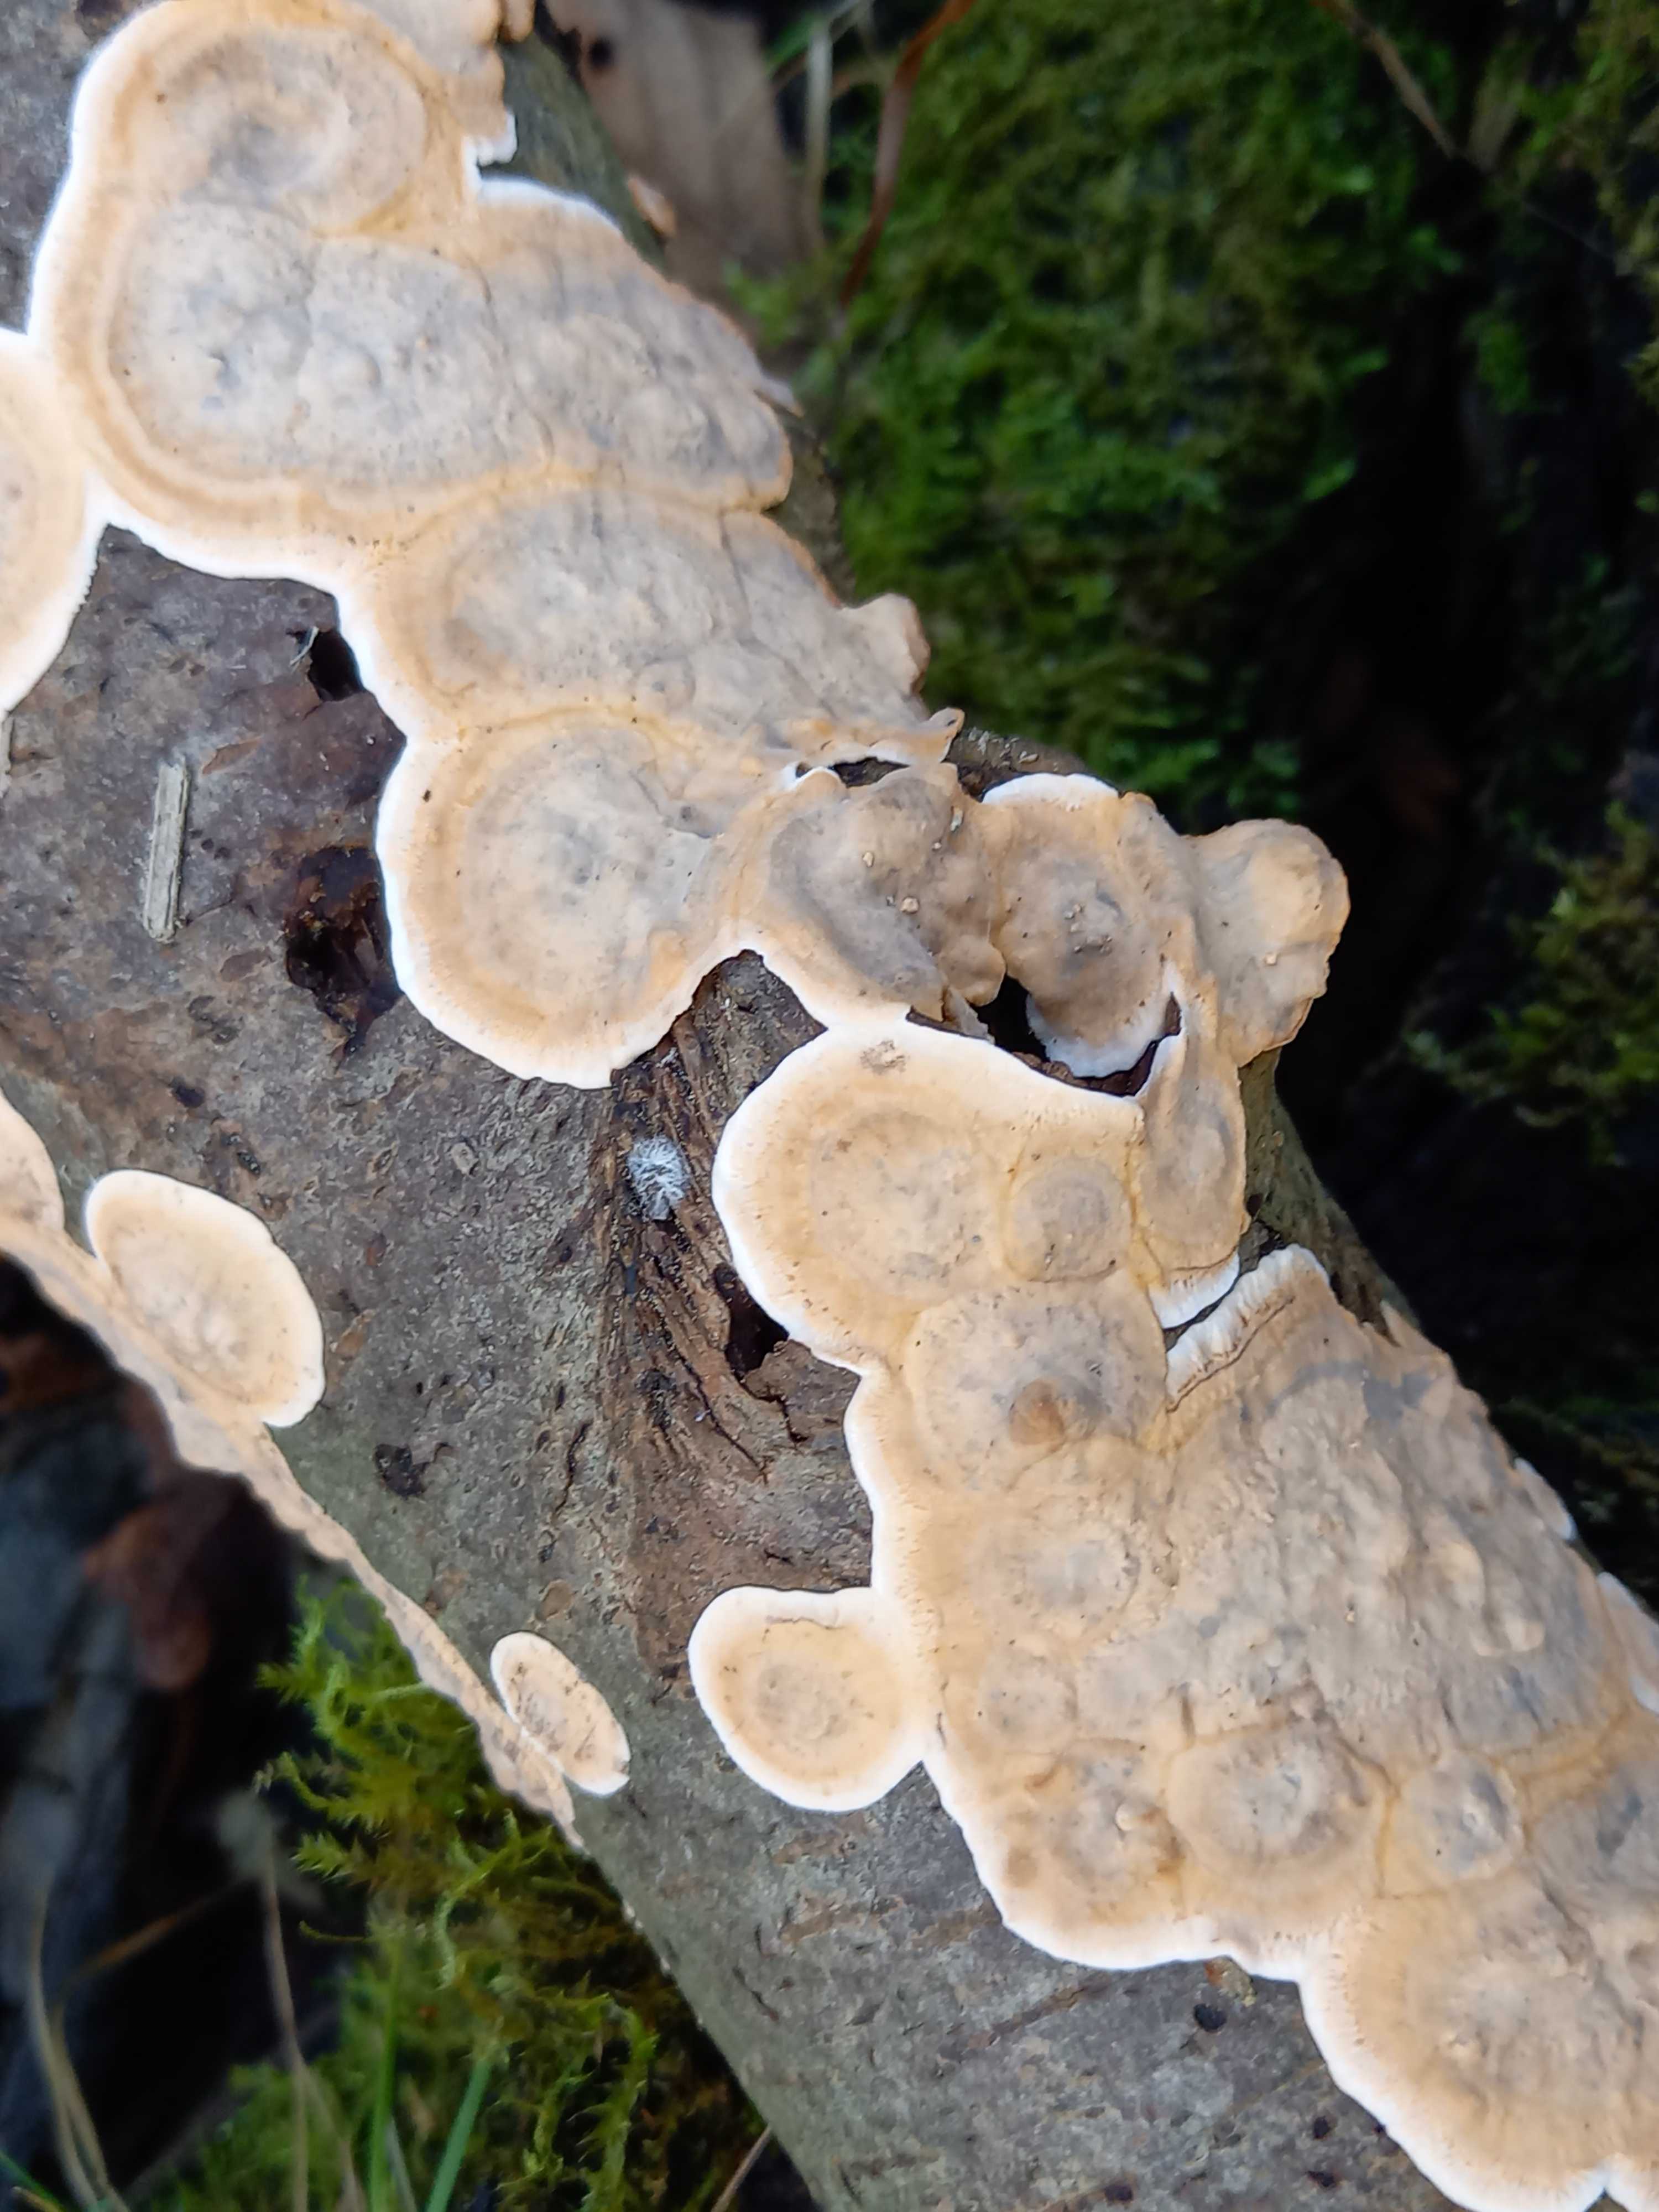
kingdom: Fungi
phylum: Basidiomycota
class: Agaricomycetes
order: Agaricales
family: Physalacriaceae
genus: Cylindrobasidium
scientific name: Cylindrobasidium evolvens
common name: sprækkehinde
